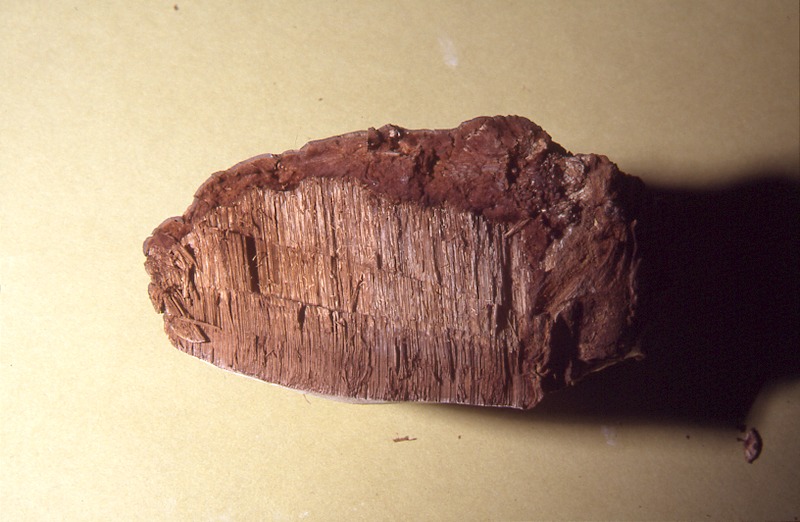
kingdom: Fungi
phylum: Basidiomycota
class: Agaricomycetes
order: Polyporales
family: Polyporaceae
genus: Ganoderma
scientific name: Ganoderma adspersum
